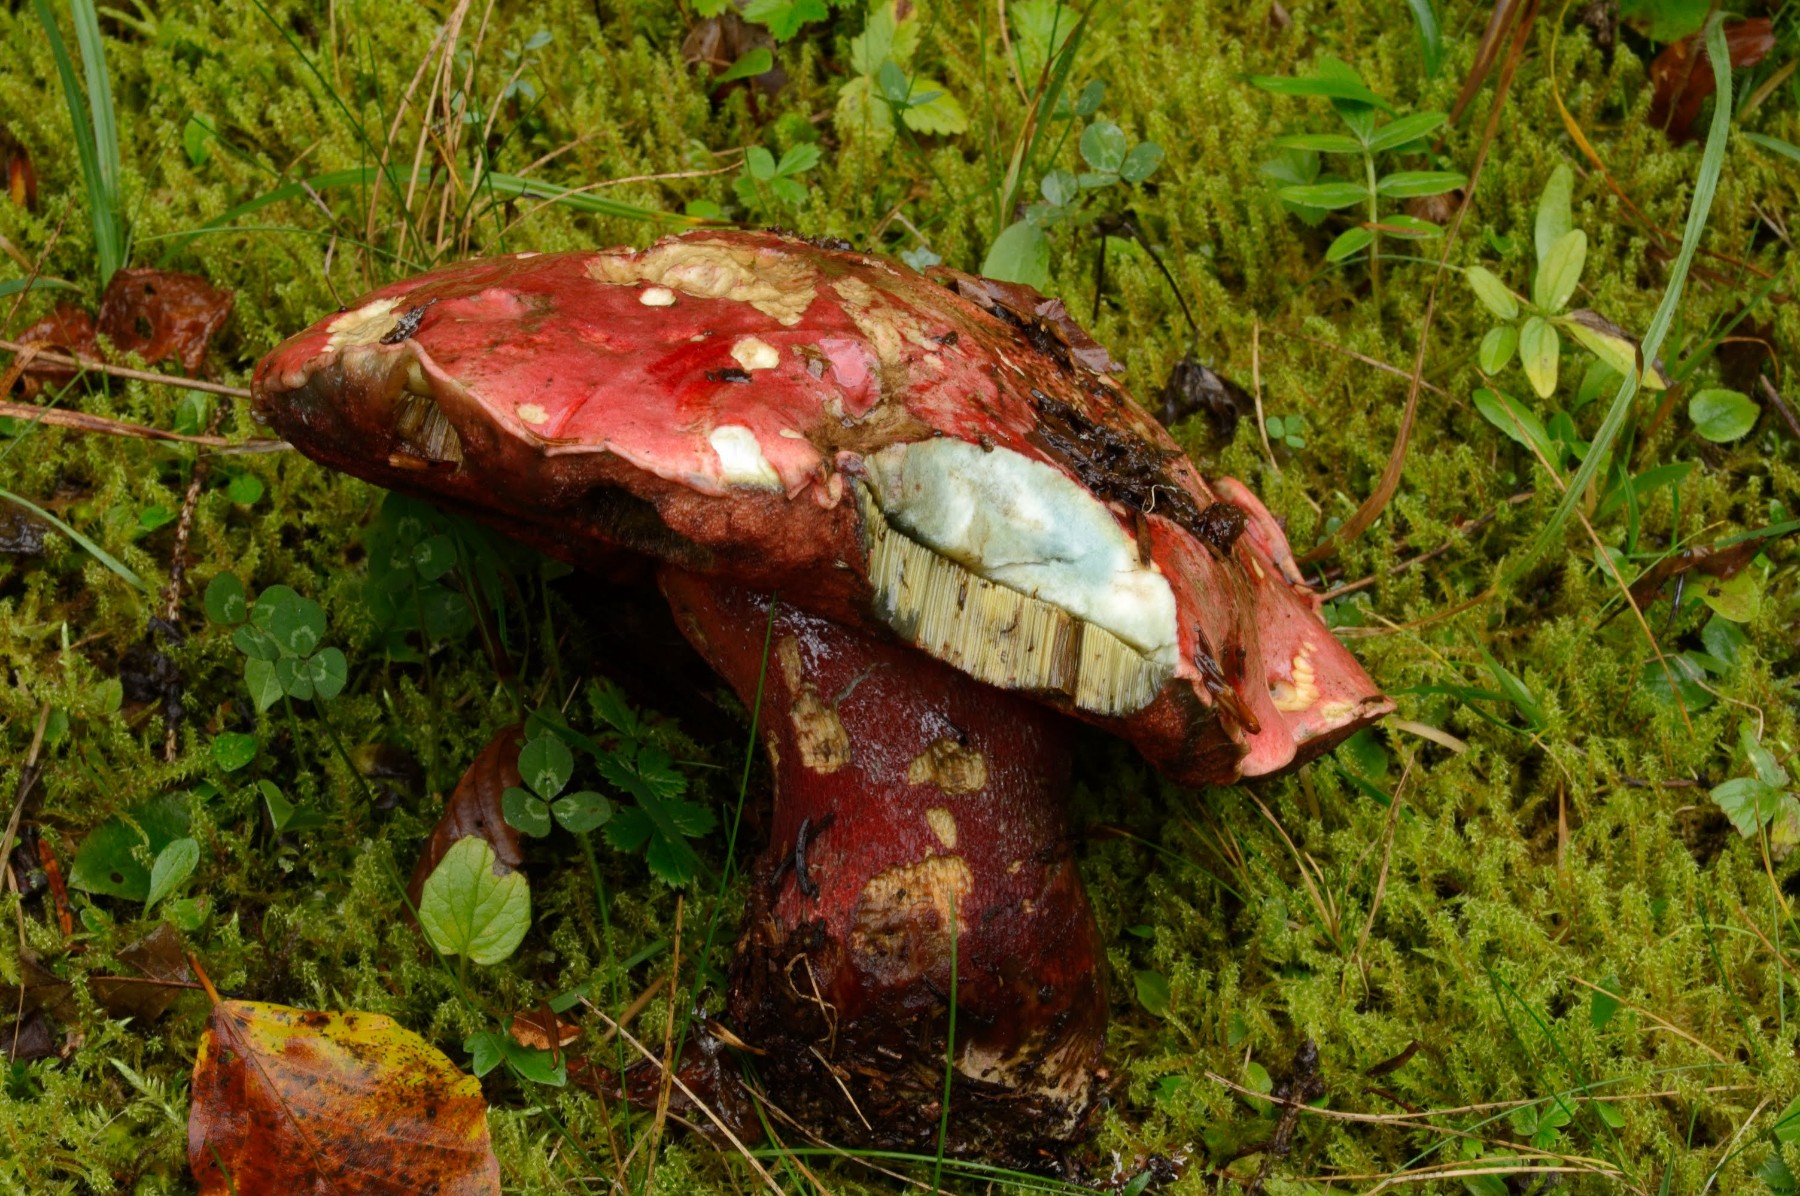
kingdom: Fungi
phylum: Basidiomycota
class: Agaricomycetes
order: Boletales
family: Boletaceae
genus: Rubroboletus
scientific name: Rubroboletus rubrosanguineus
